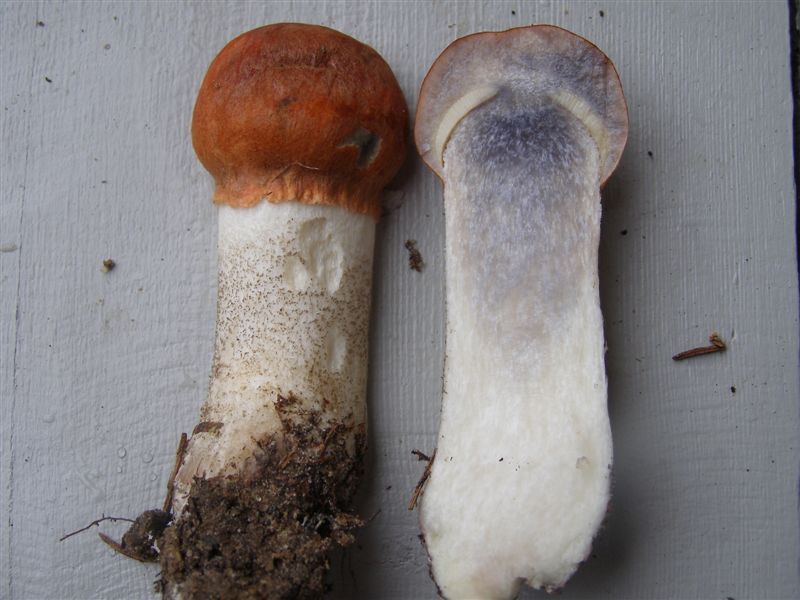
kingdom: Fungi
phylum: Basidiomycota
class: Agaricomycetes
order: Boletales
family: Boletaceae
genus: Leccinum
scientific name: Leccinum vulpinum
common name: fyrre-skælrørhat
